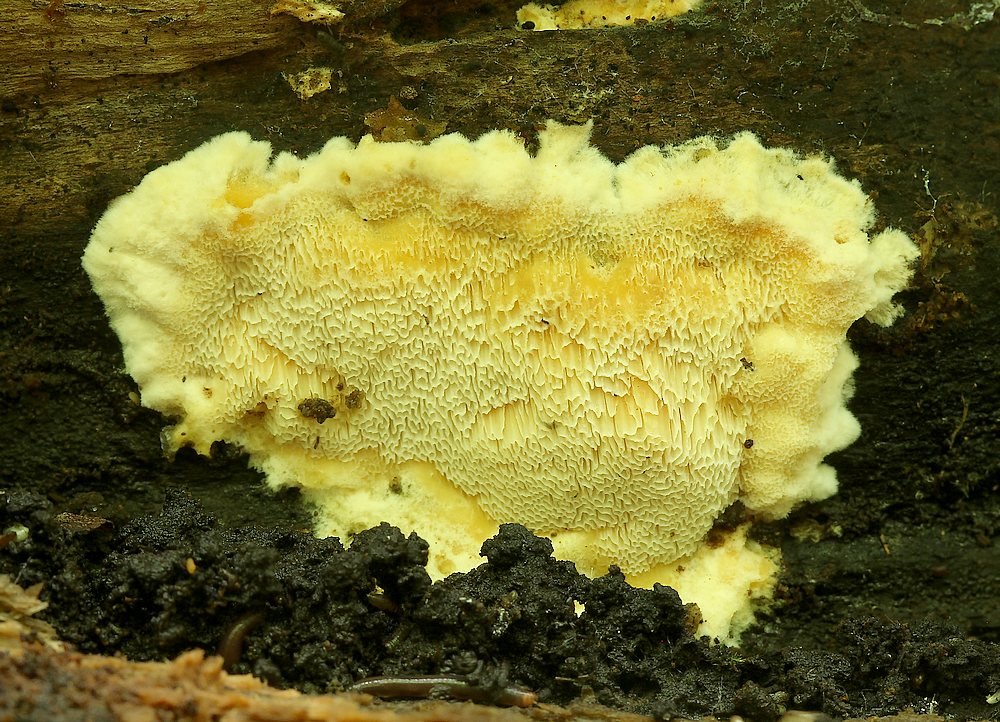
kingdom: Fungi
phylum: Basidiomycota
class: Agaricomycetes
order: Polyporales
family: Steccherinaceae
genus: Antrodiella
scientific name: Antrodiella mentschulensis
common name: abrikosporesvamp
